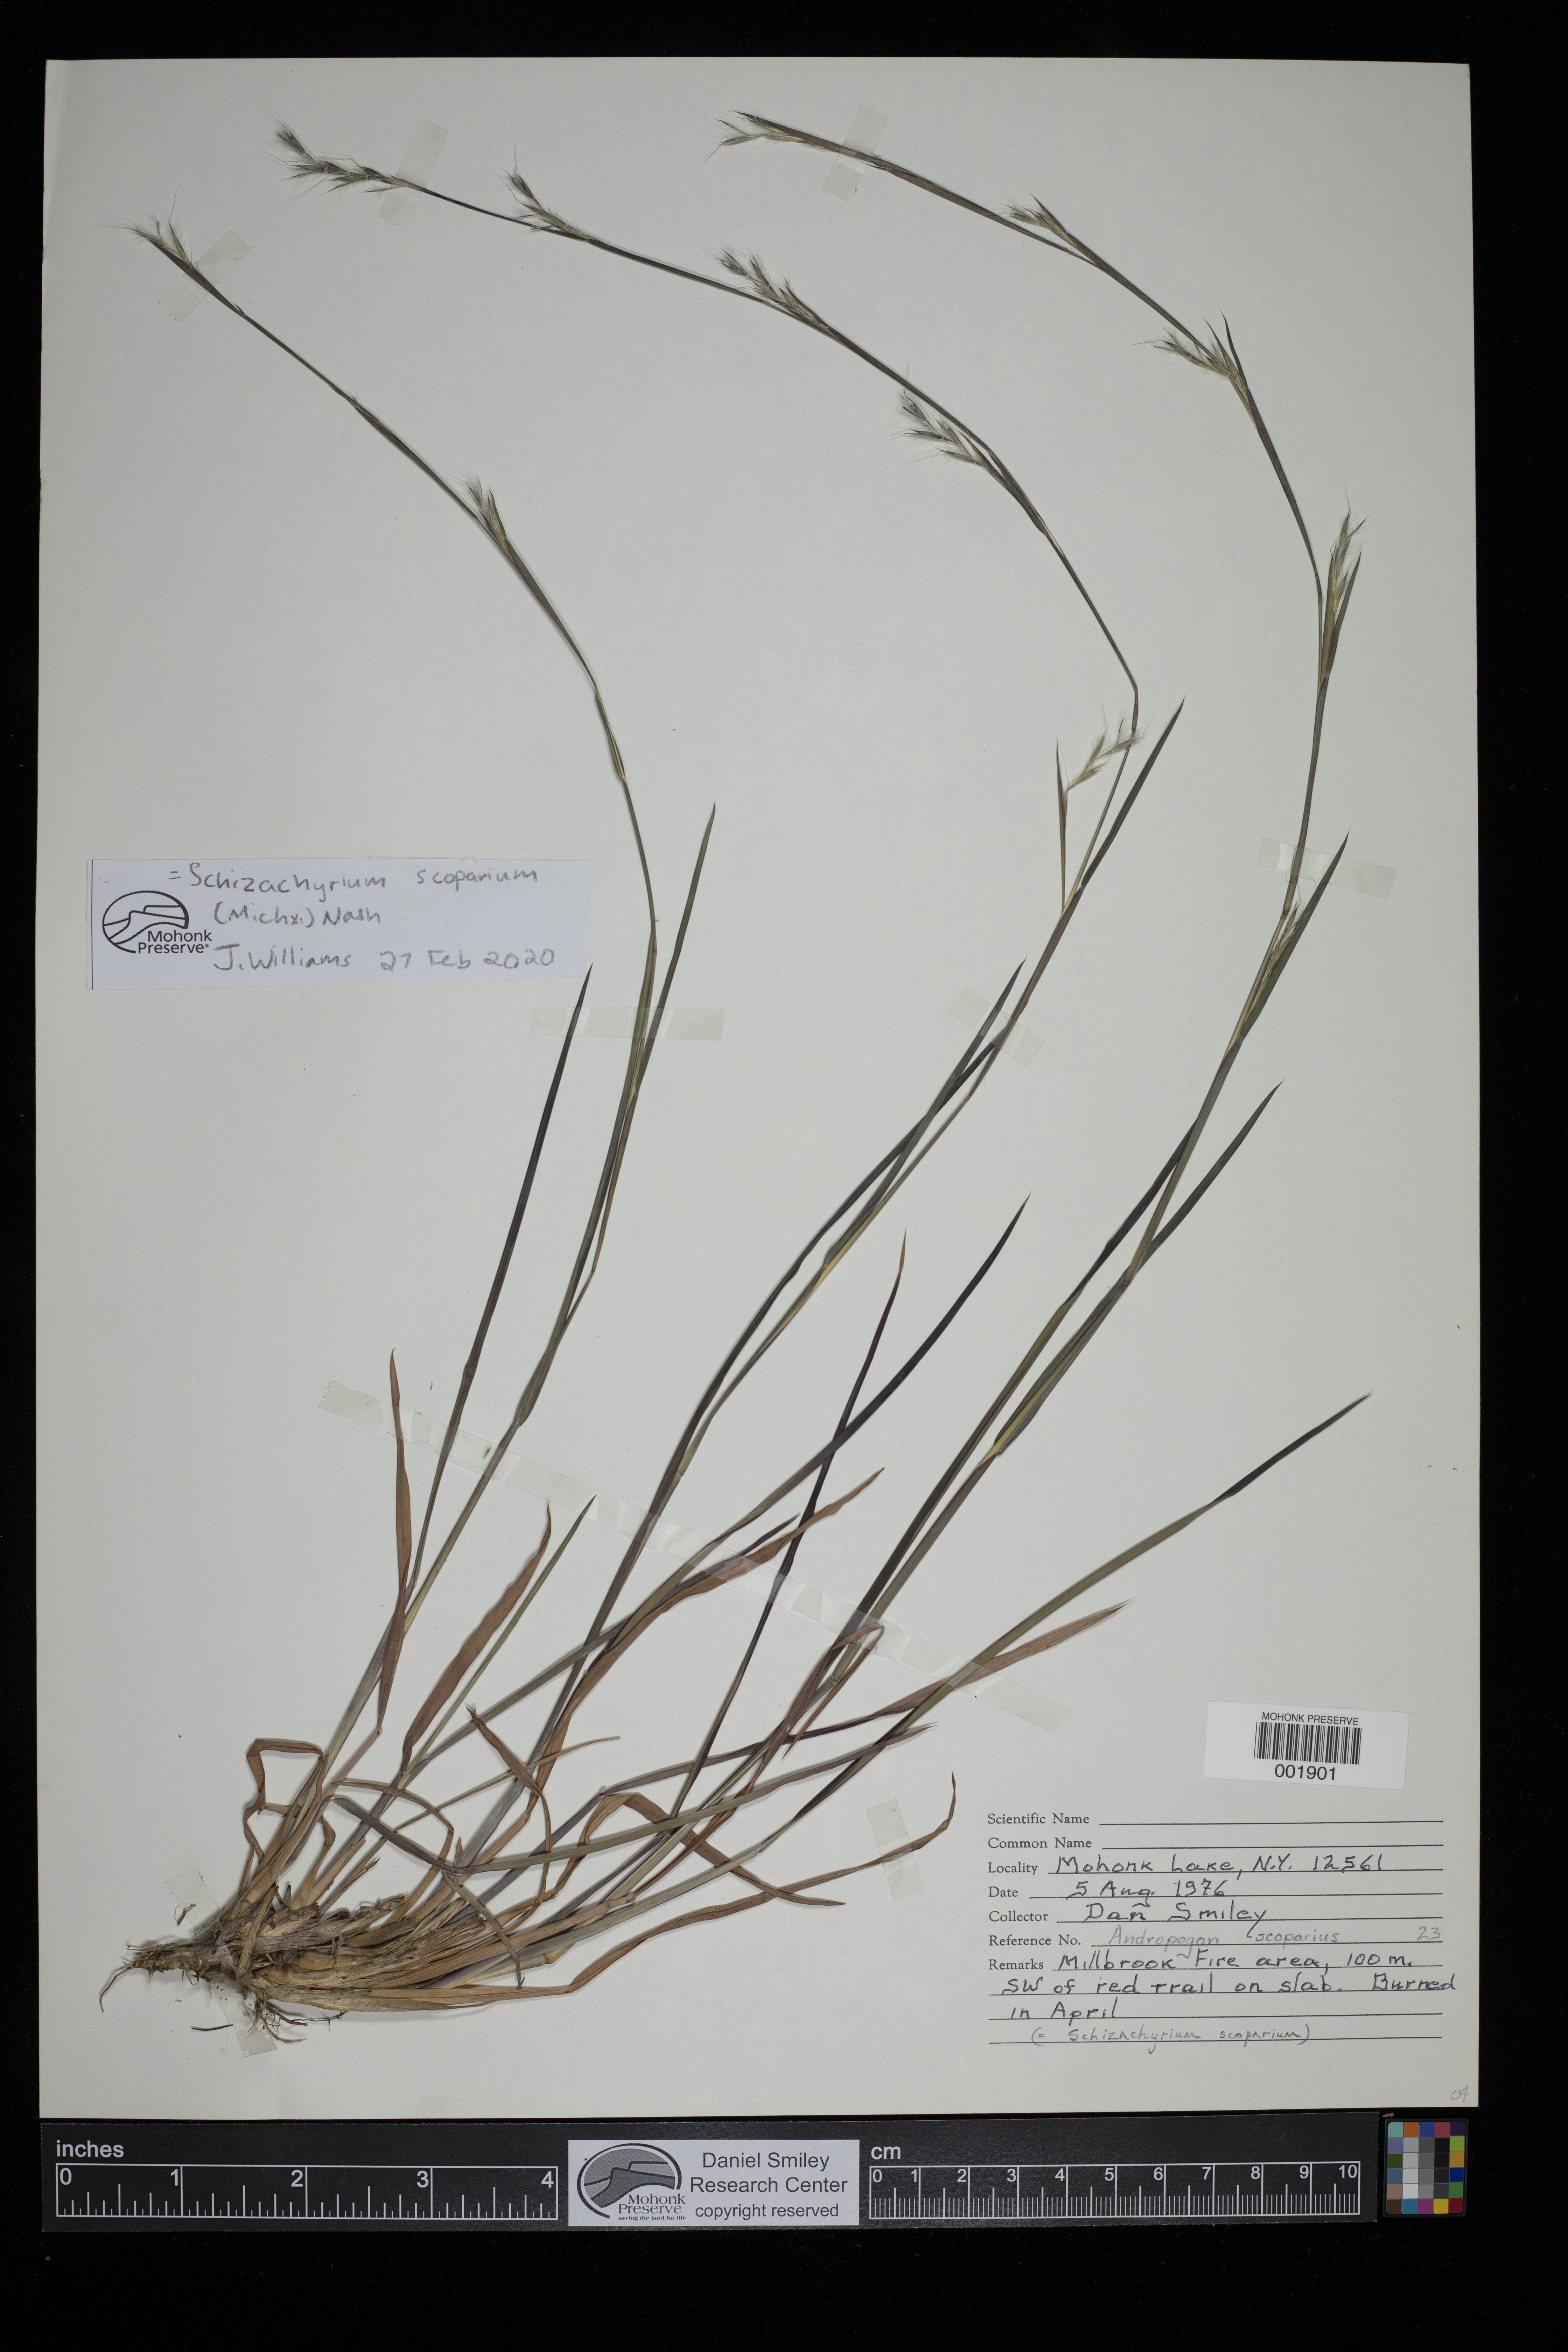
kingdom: Plantae
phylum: Tracheophyta
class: Liliopsida
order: Poales
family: Poaceae
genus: Schizachyrium
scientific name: Schizachyrium scoparium
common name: Little bluestem
